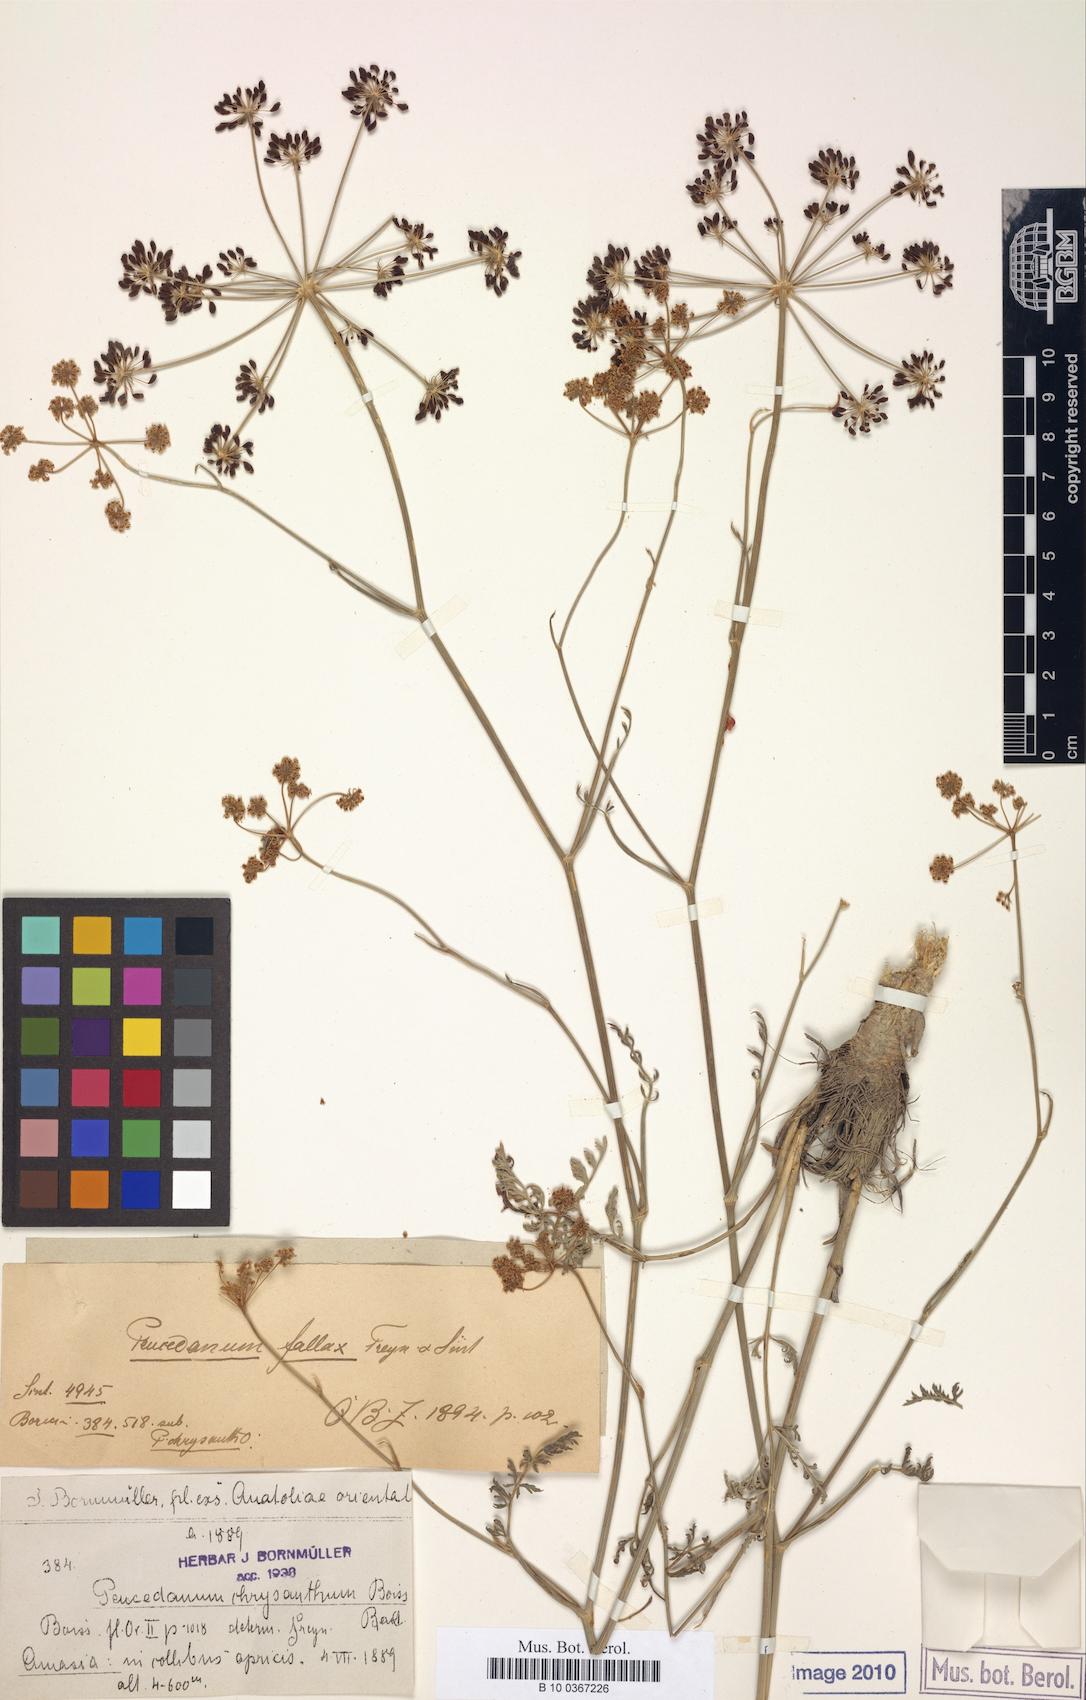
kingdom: Plantae
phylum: Tracheophyta
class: Magnoliopsida
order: Apiales
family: Apiaceae
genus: Dichoropetalum
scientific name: Dichoropetalum palimbioides
